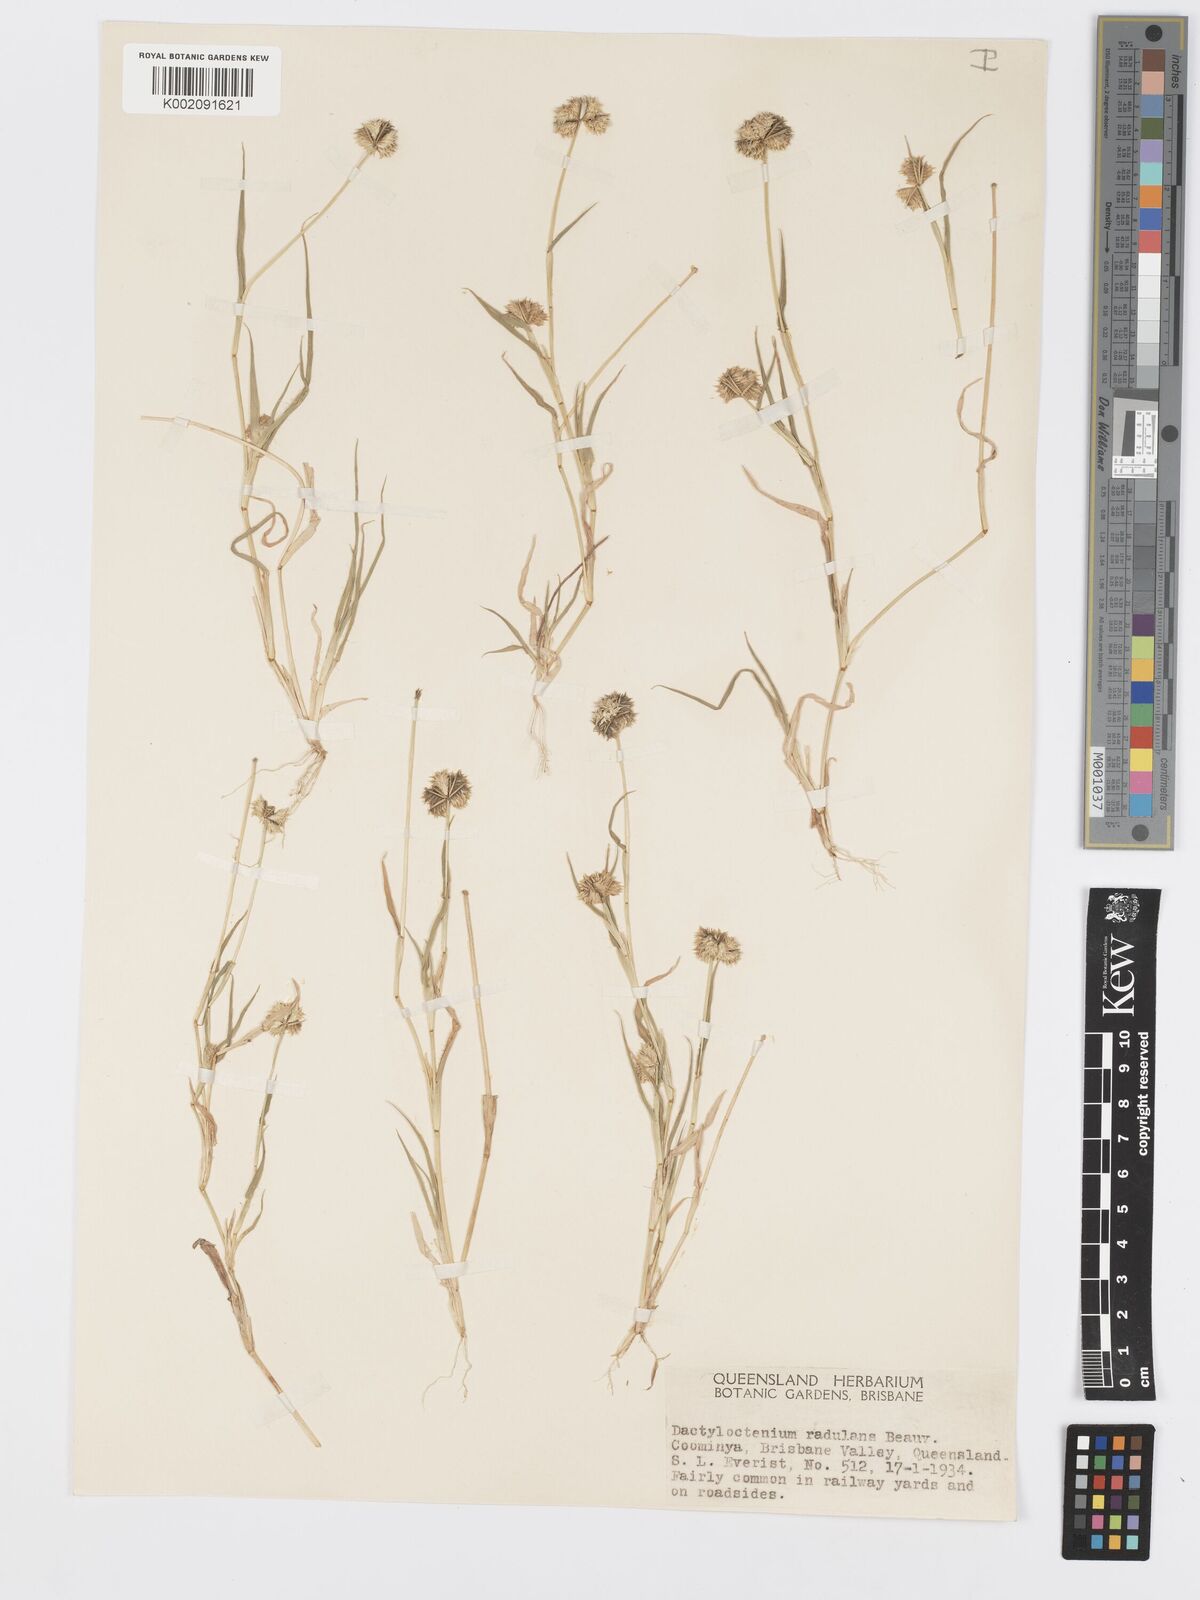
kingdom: Plantae
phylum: Tracheophyta
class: Liliopsida
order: Poales
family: Poaceae
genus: Dactyloctenium
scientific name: Dactyloctenium radulans
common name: Button-grass
